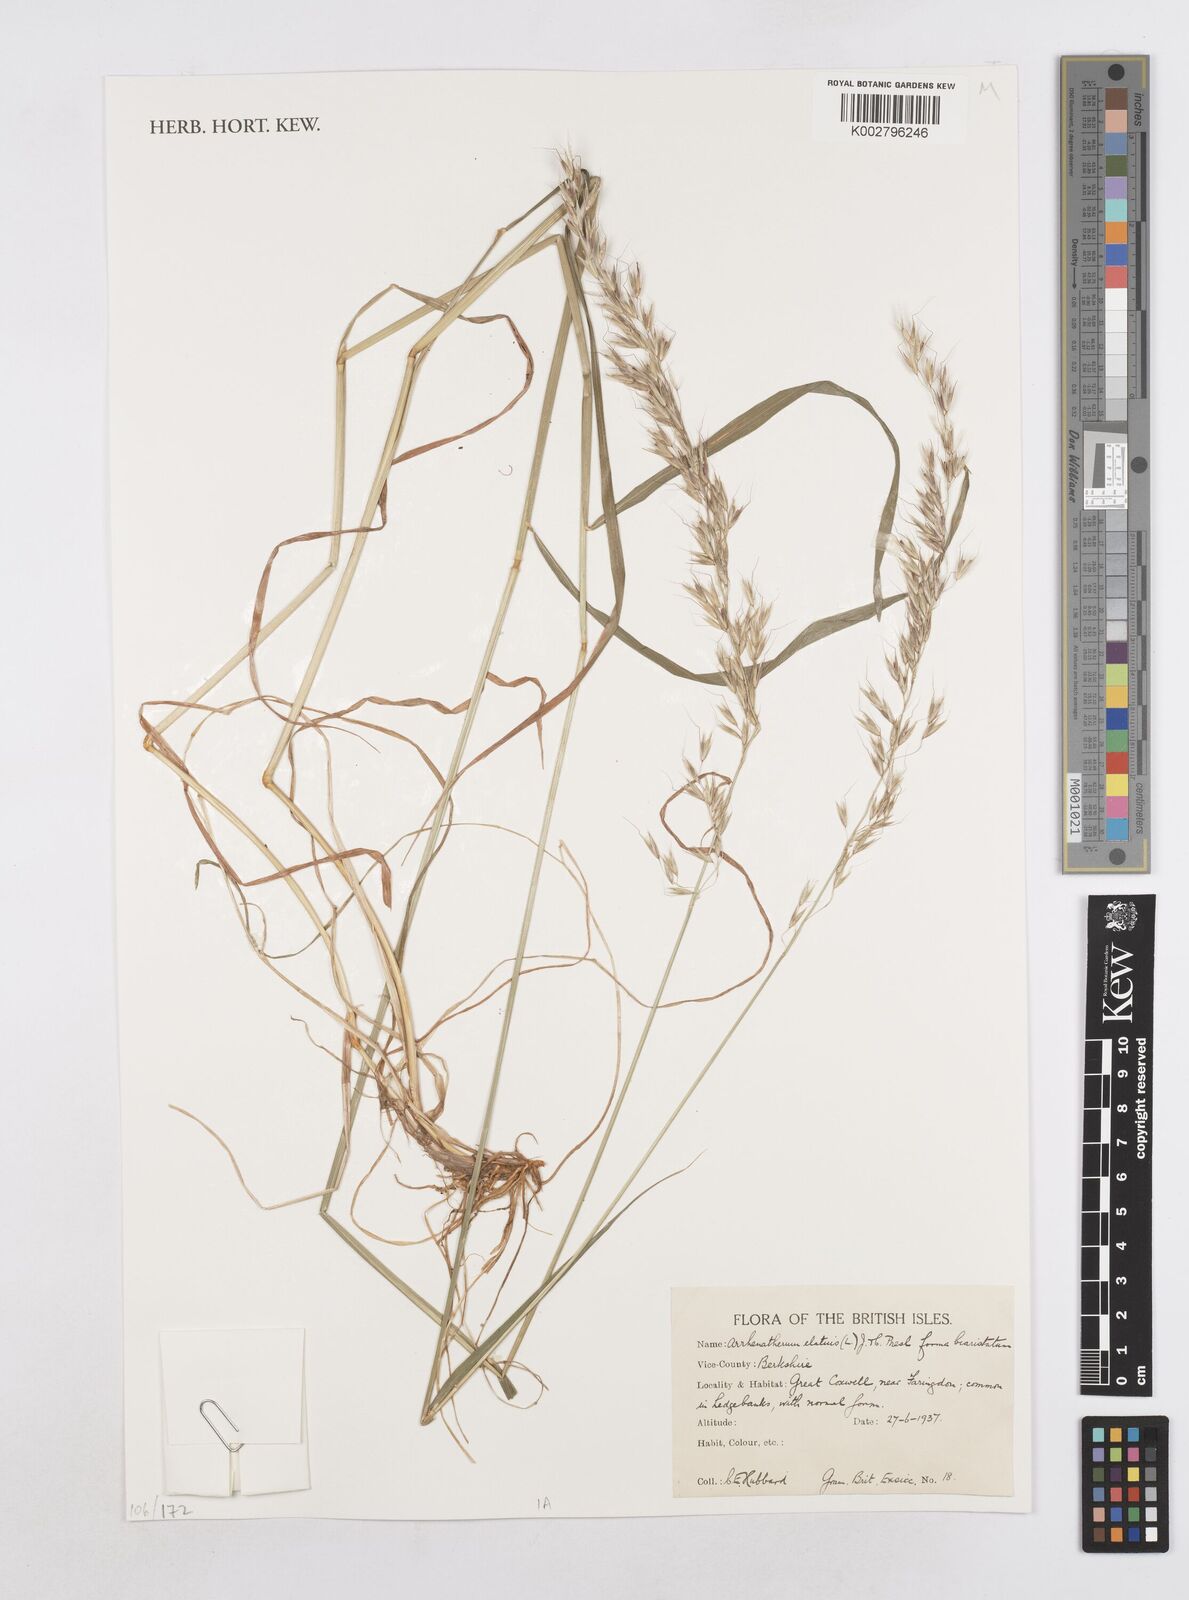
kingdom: Plantae
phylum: Tracheophyta
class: Liliopsida
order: Poales
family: Poaceae
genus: Arrhenatherum
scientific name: Arrhenatherum elatius
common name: Tall oatgrass
